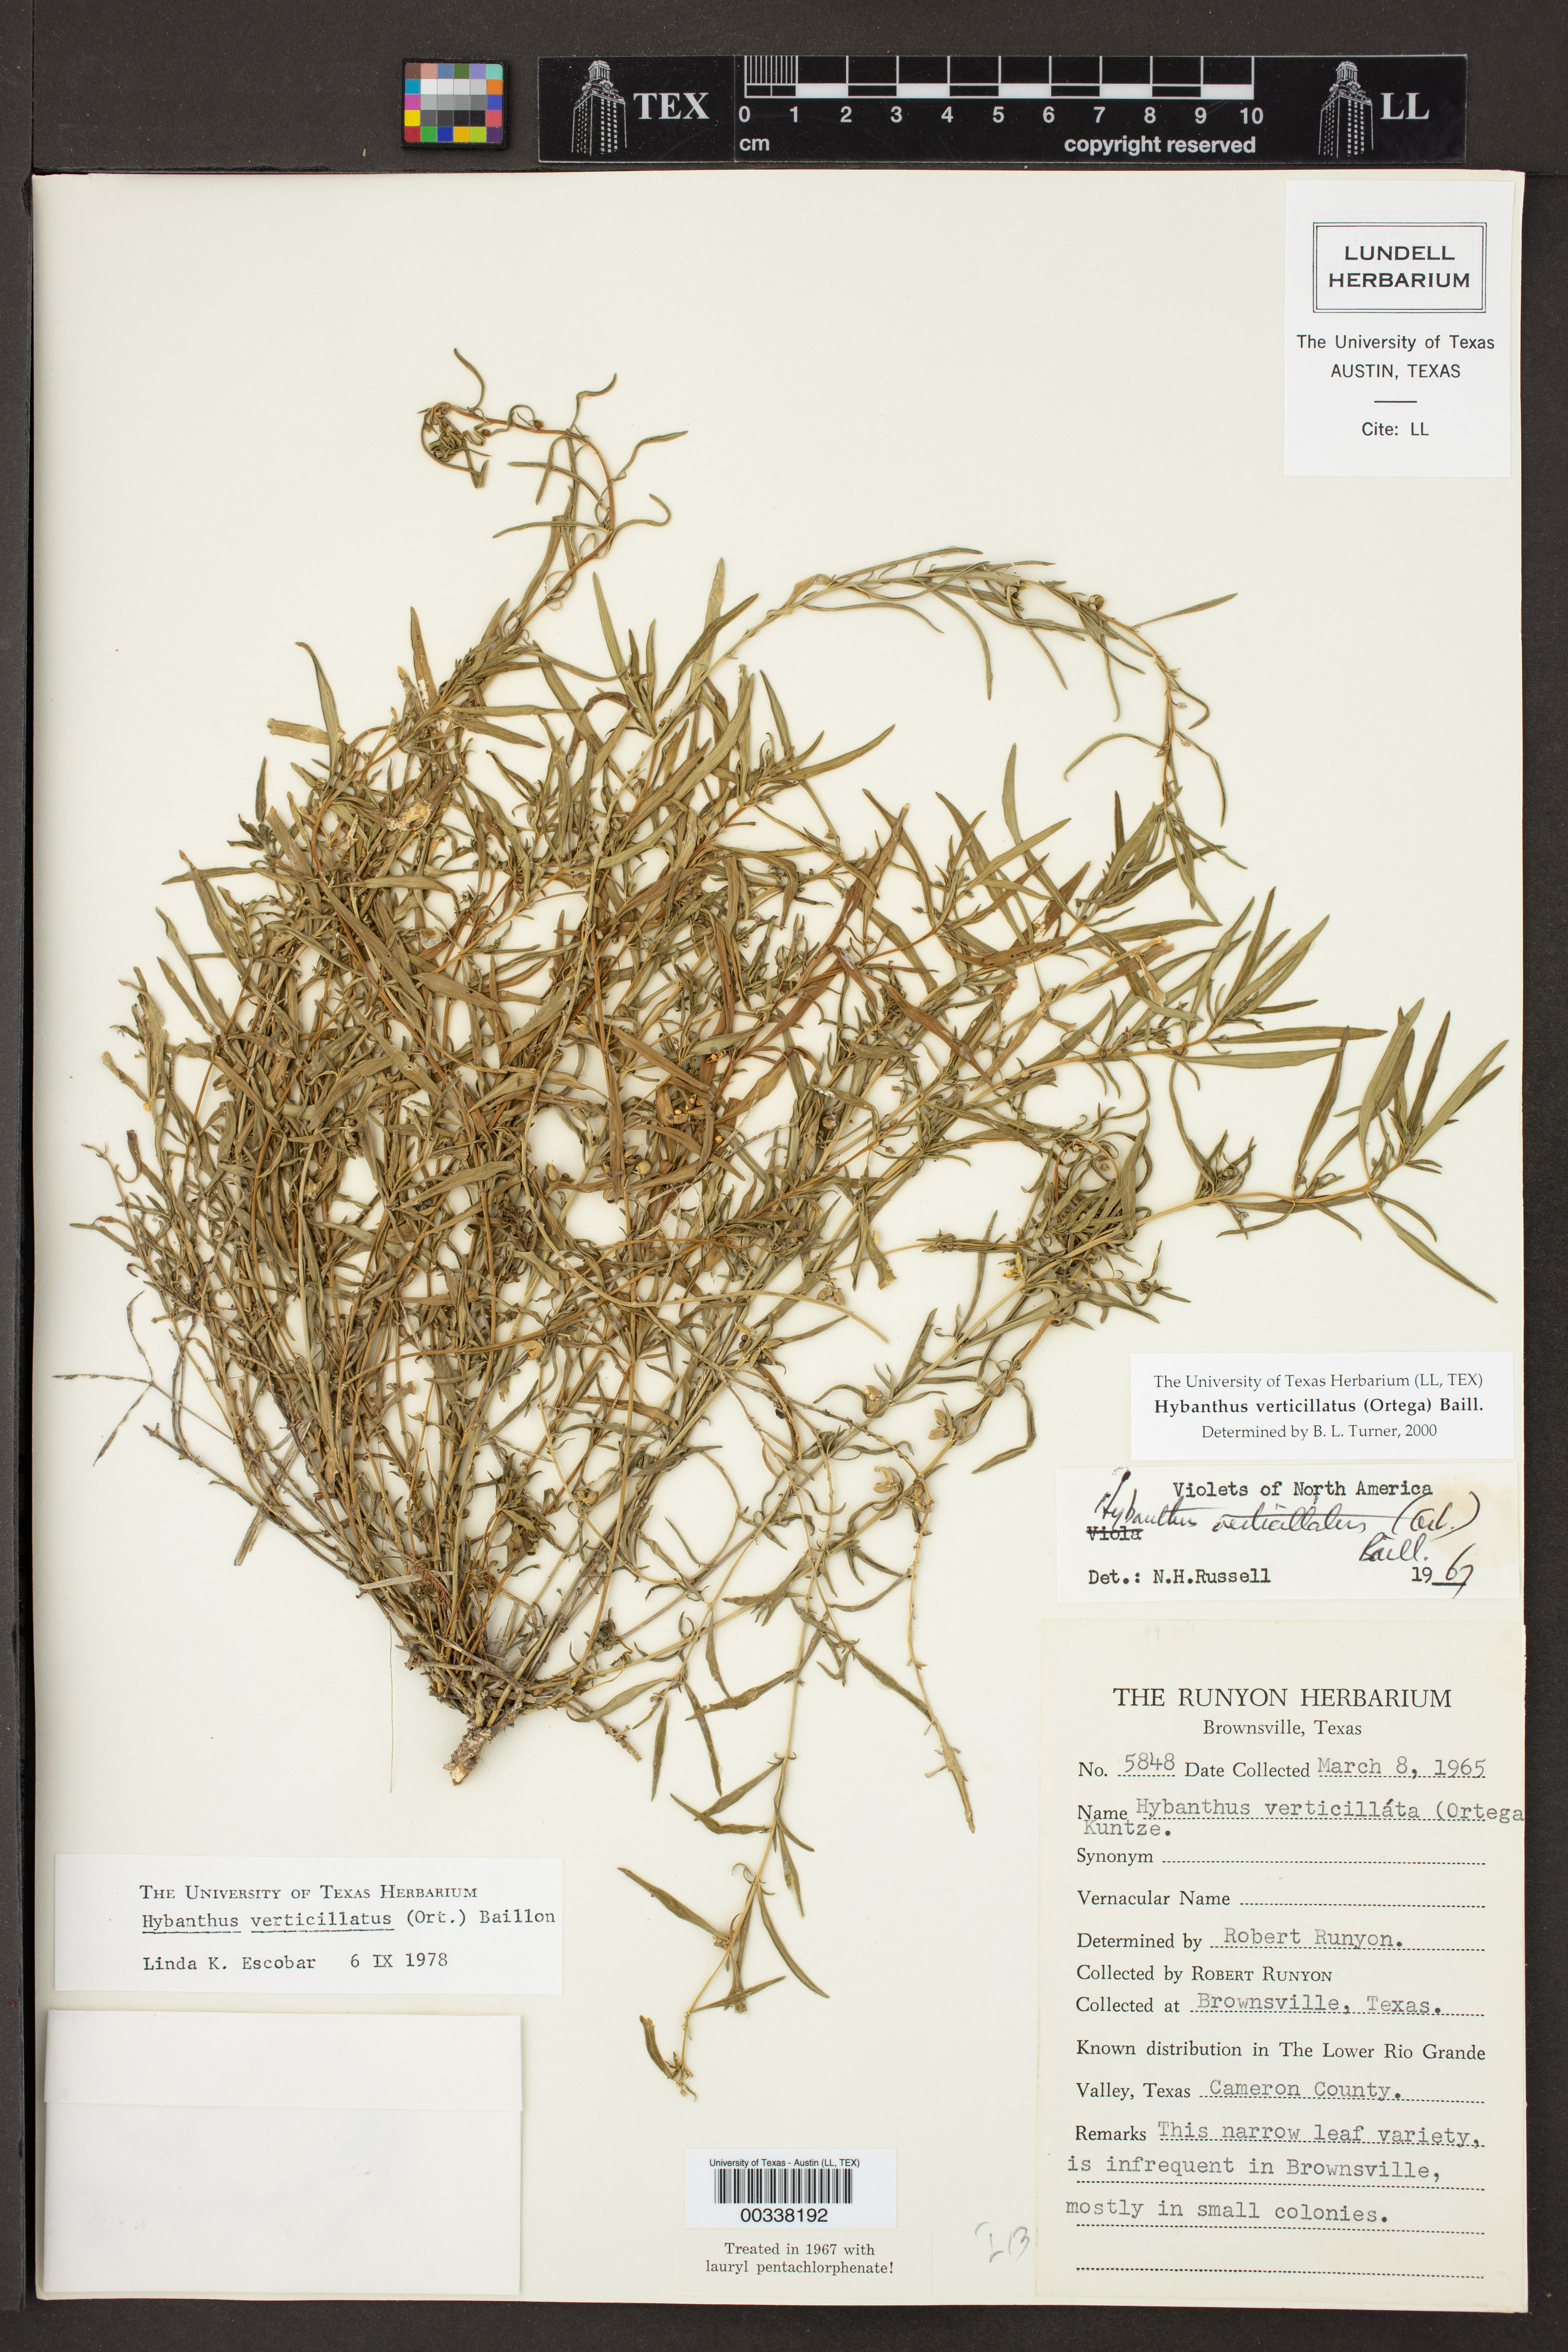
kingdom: Plantae
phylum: Tracheophyta
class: Magnoliopsida
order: Malpighiales
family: Violaceae
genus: Pombalia
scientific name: Pombalia verticillata
